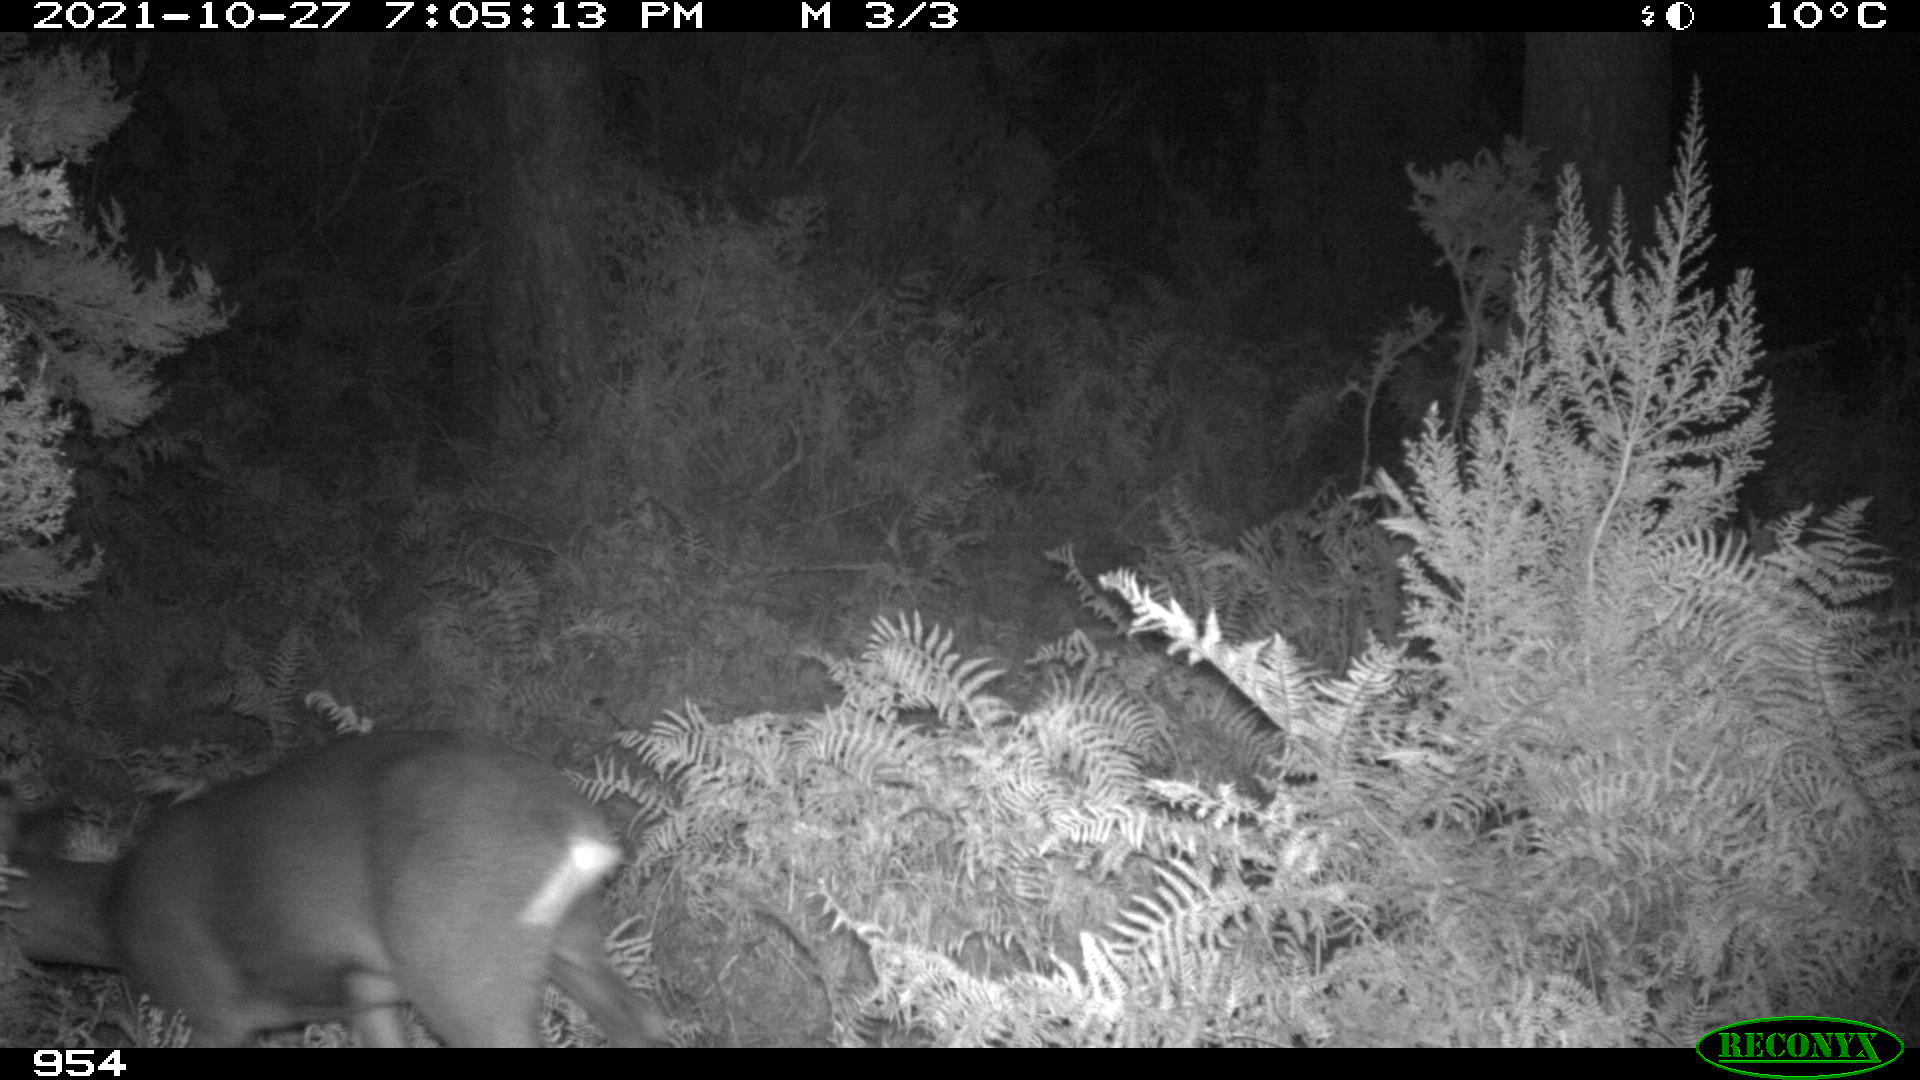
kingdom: Animalia
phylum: Chordata
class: Mammalia
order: Artiodactyla
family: Cervidae
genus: Capreolus
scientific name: Capreolus capreolus
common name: Western roe deer
